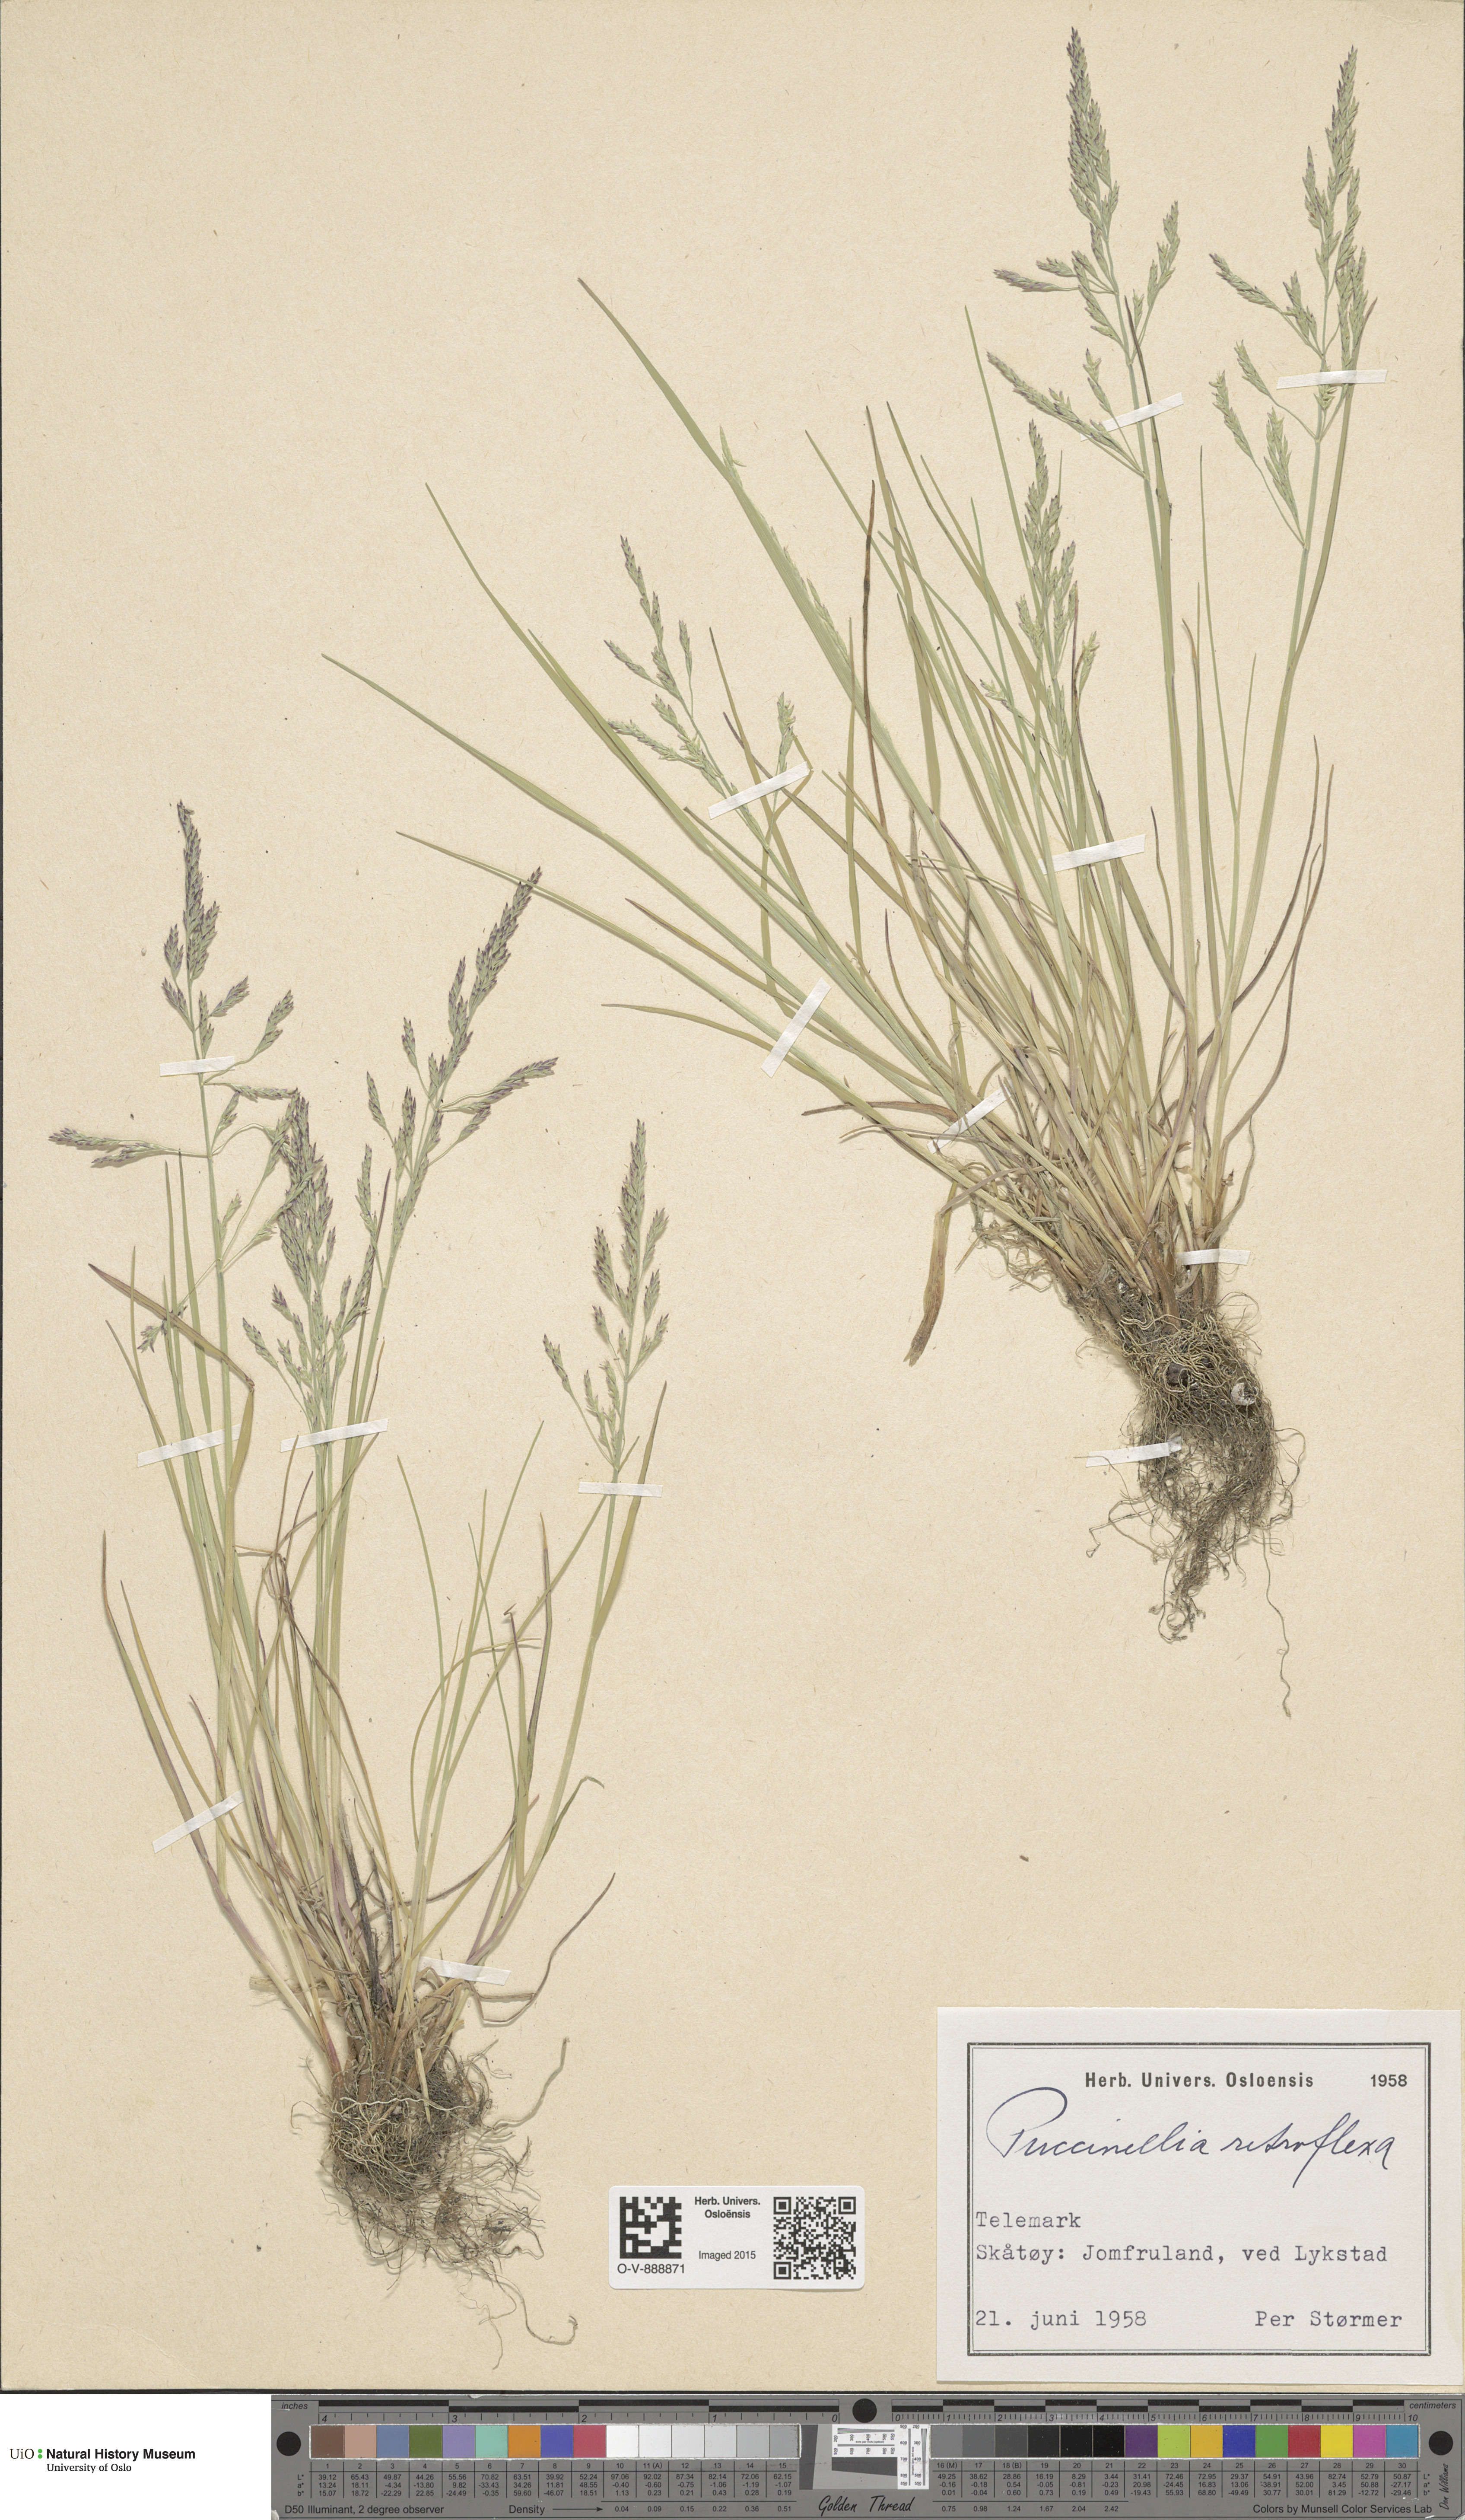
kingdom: Plantae
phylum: Tracheophyta
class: Liliopsida
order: Poales
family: Poaceae
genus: Puccinellia
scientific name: Puccinellia distans
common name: Weeping alkaligrass
